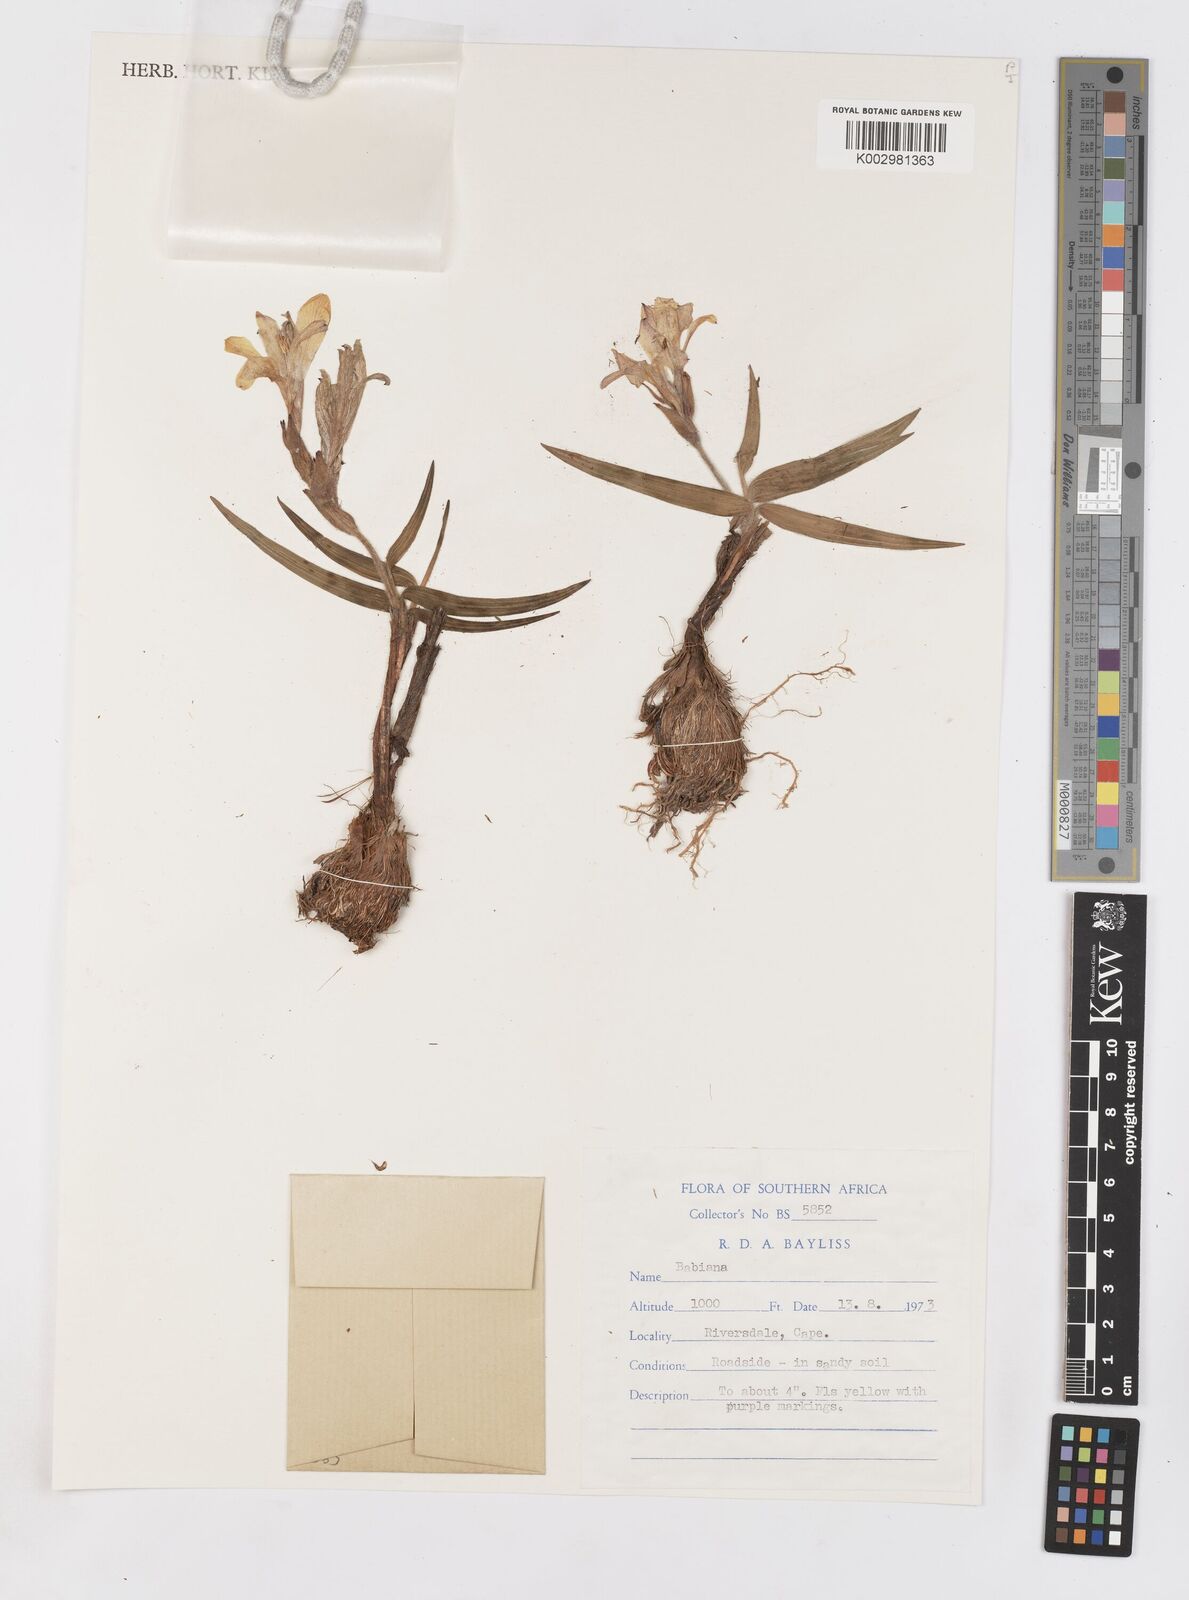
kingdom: Plantae
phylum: Tracheophyta
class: Liliopsida
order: Asparagales
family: Iridaceae
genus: Babiana
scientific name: Babiana
